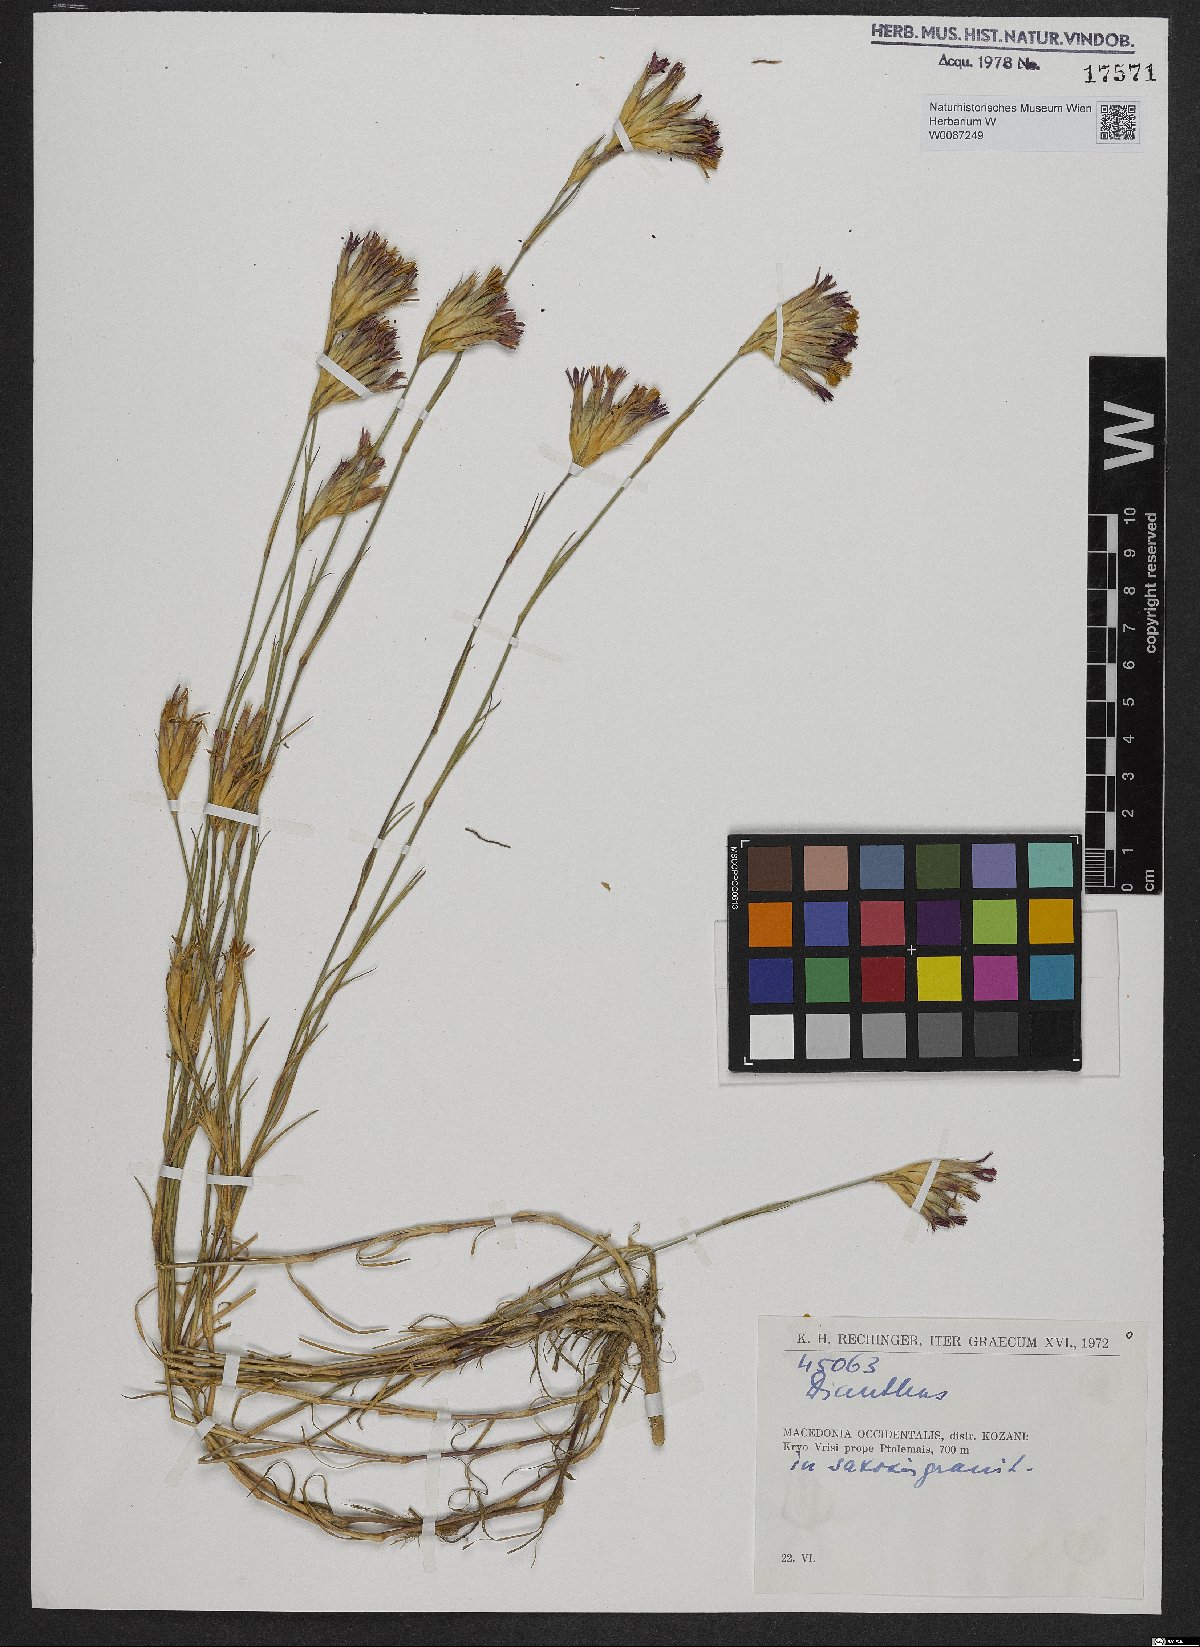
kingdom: Plantae
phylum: Tracheophyta
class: Magnoliopsida
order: Caryophyllales
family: Caryophyllaceae
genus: Dianthus
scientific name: Dianthus
